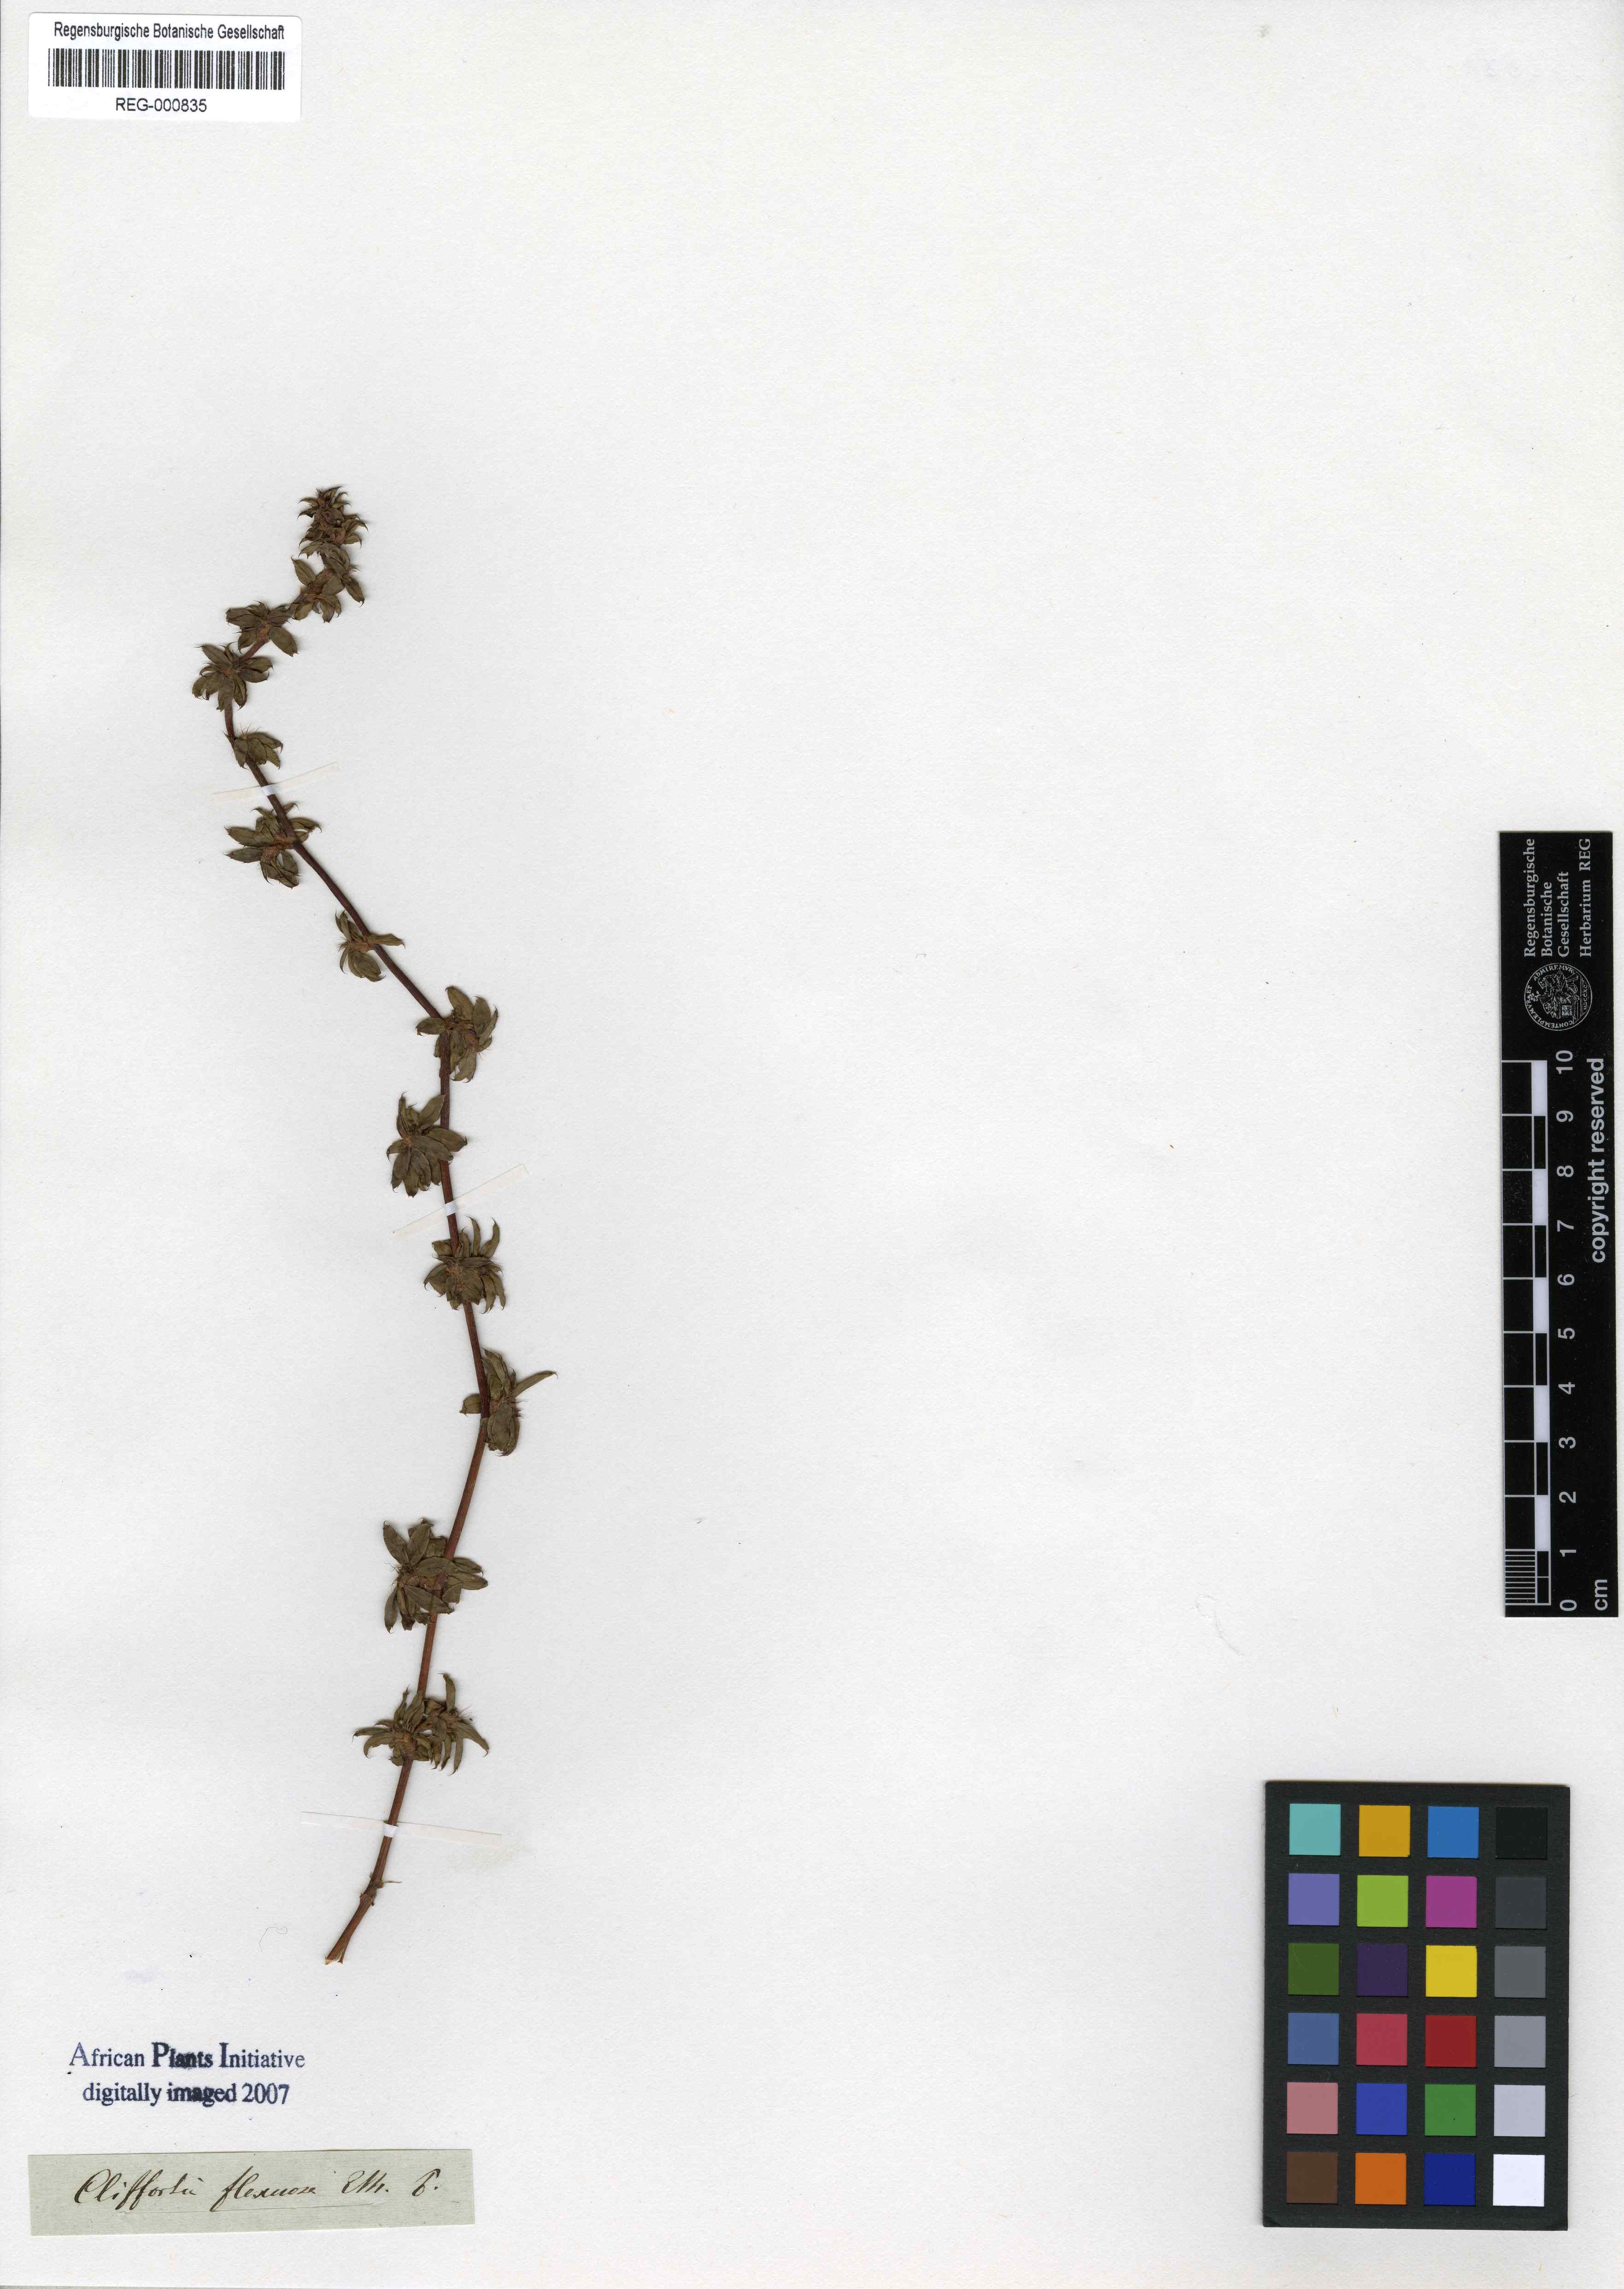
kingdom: Plantae
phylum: Tracheophyta
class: Magnoliopsida
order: Rosales
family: Rosaceae
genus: Cliffortia
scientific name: Cliffortia ferruginea
